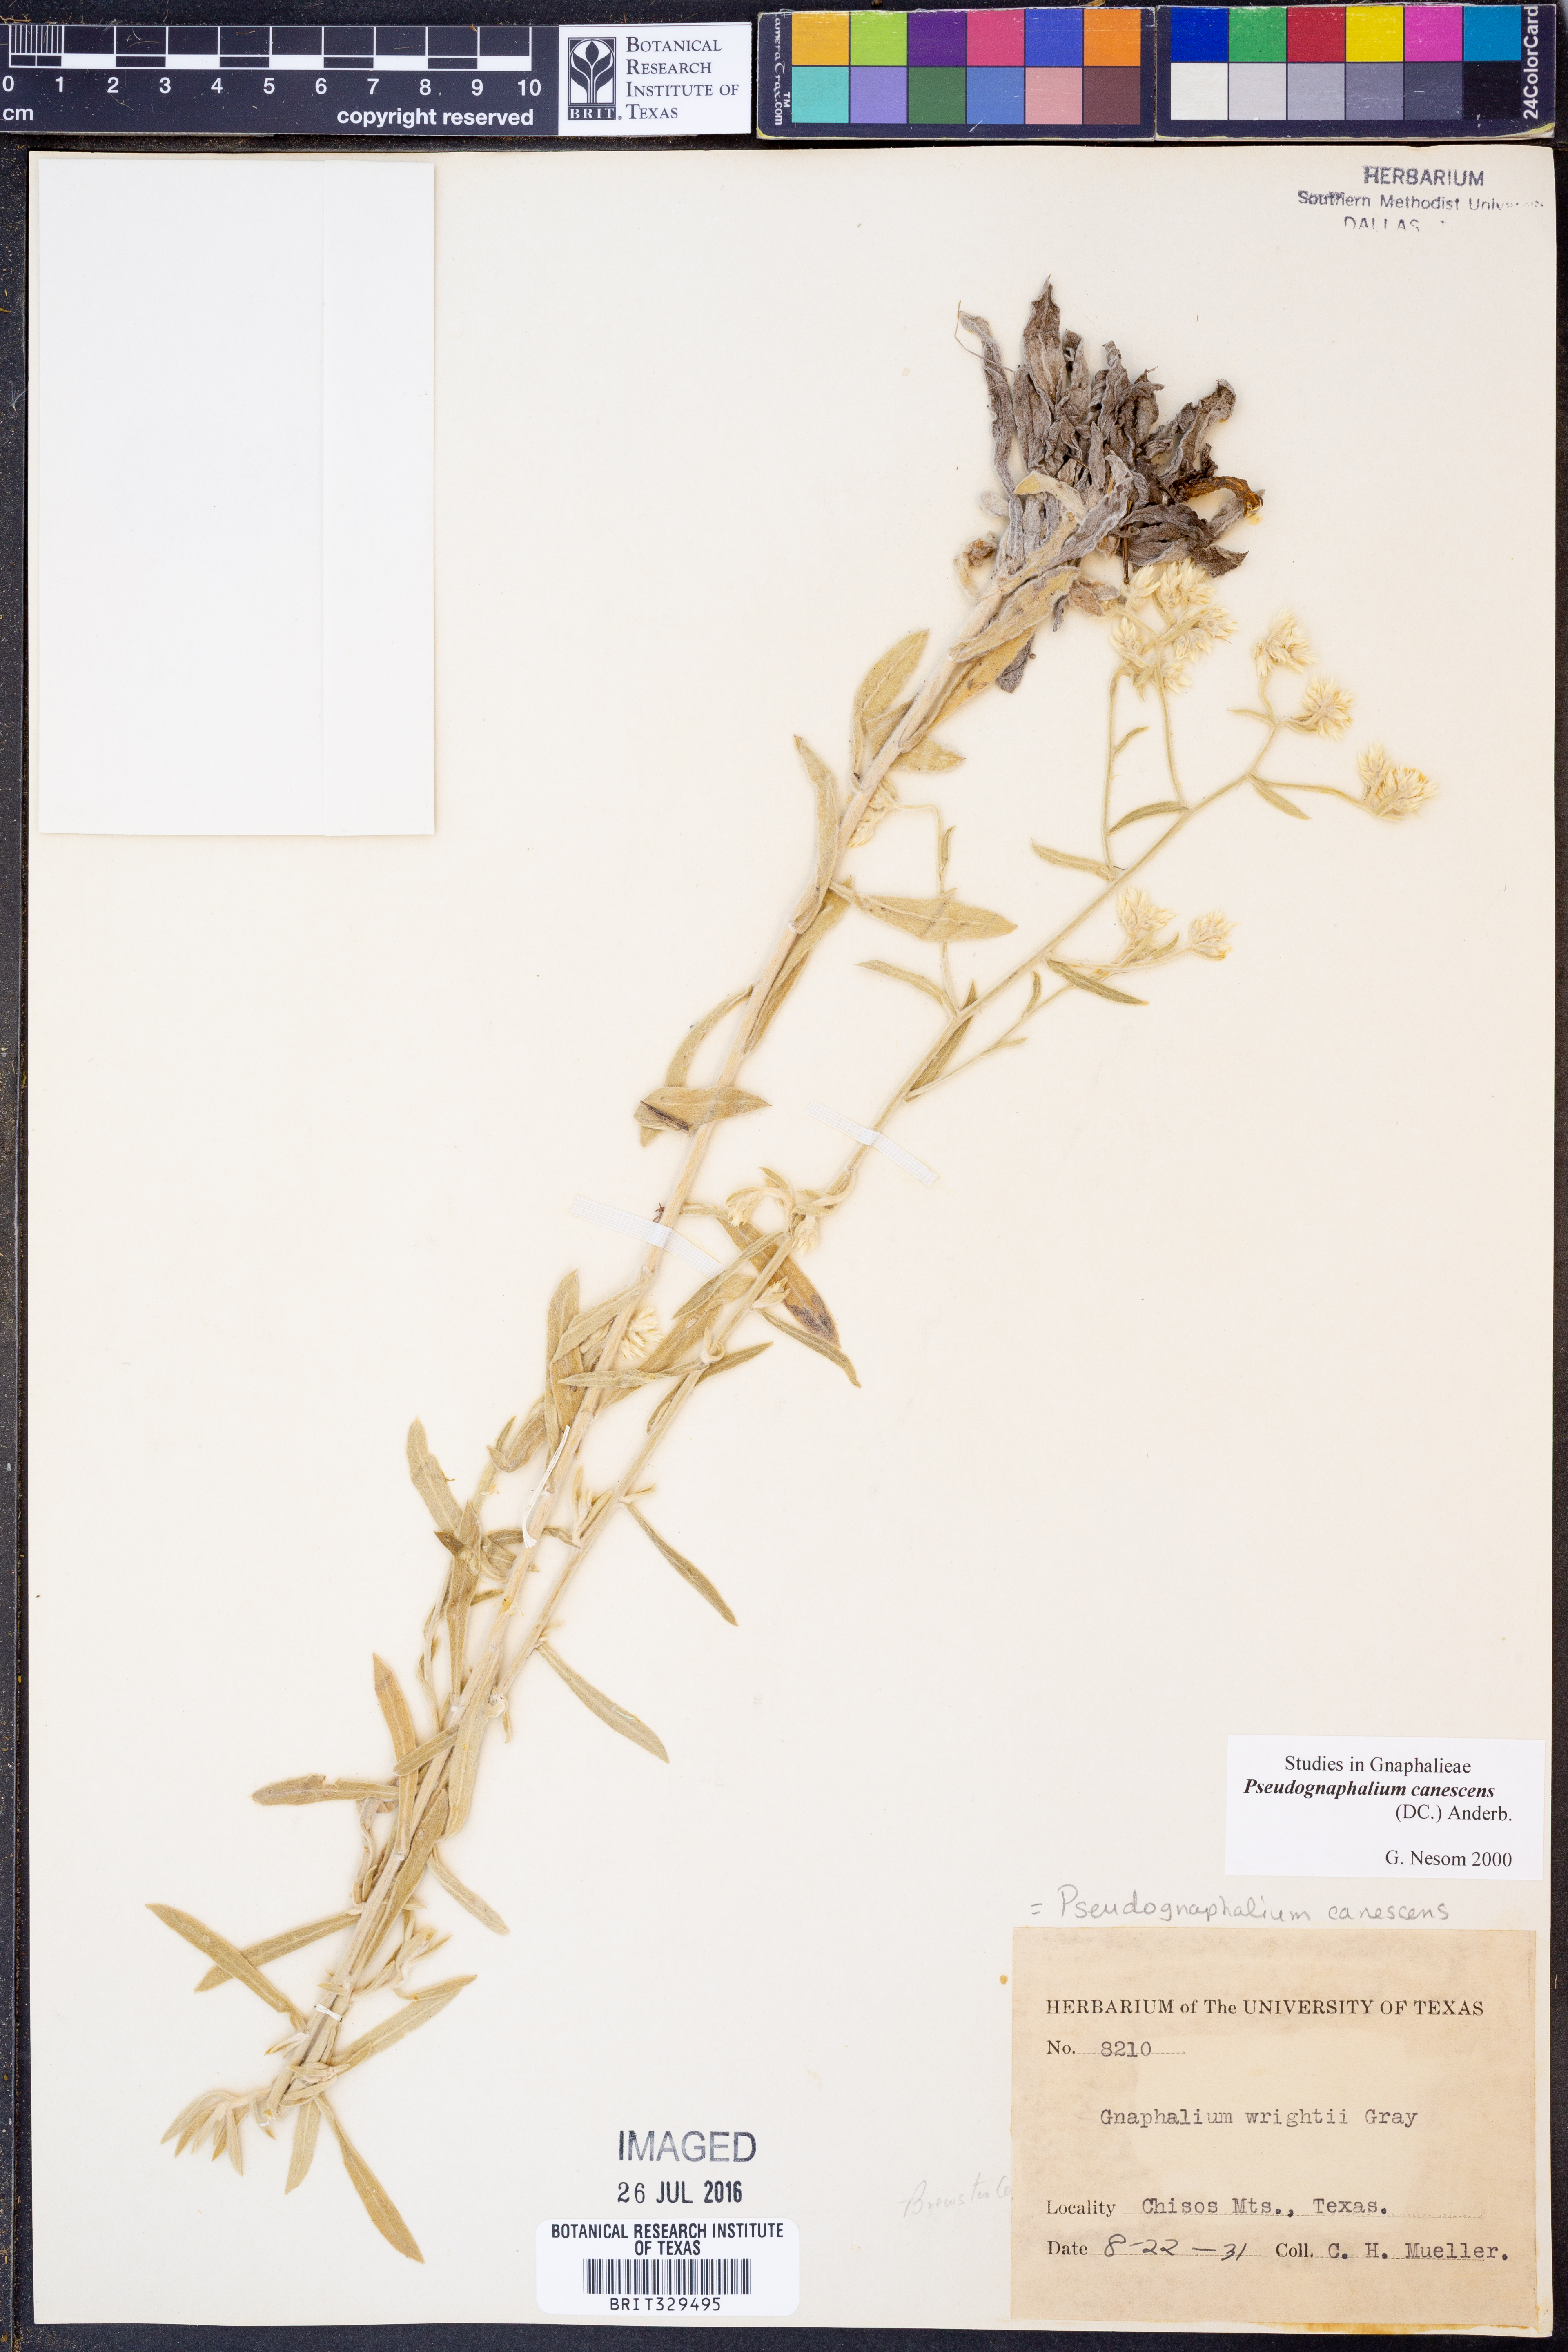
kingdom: Plantae
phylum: Tracheophyta
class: Magnoliopsida
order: Asterales
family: Asteraceae
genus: Pseudognaphalium
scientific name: Pseudognaphalium canescens
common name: Wright's rabbit-tobacco
